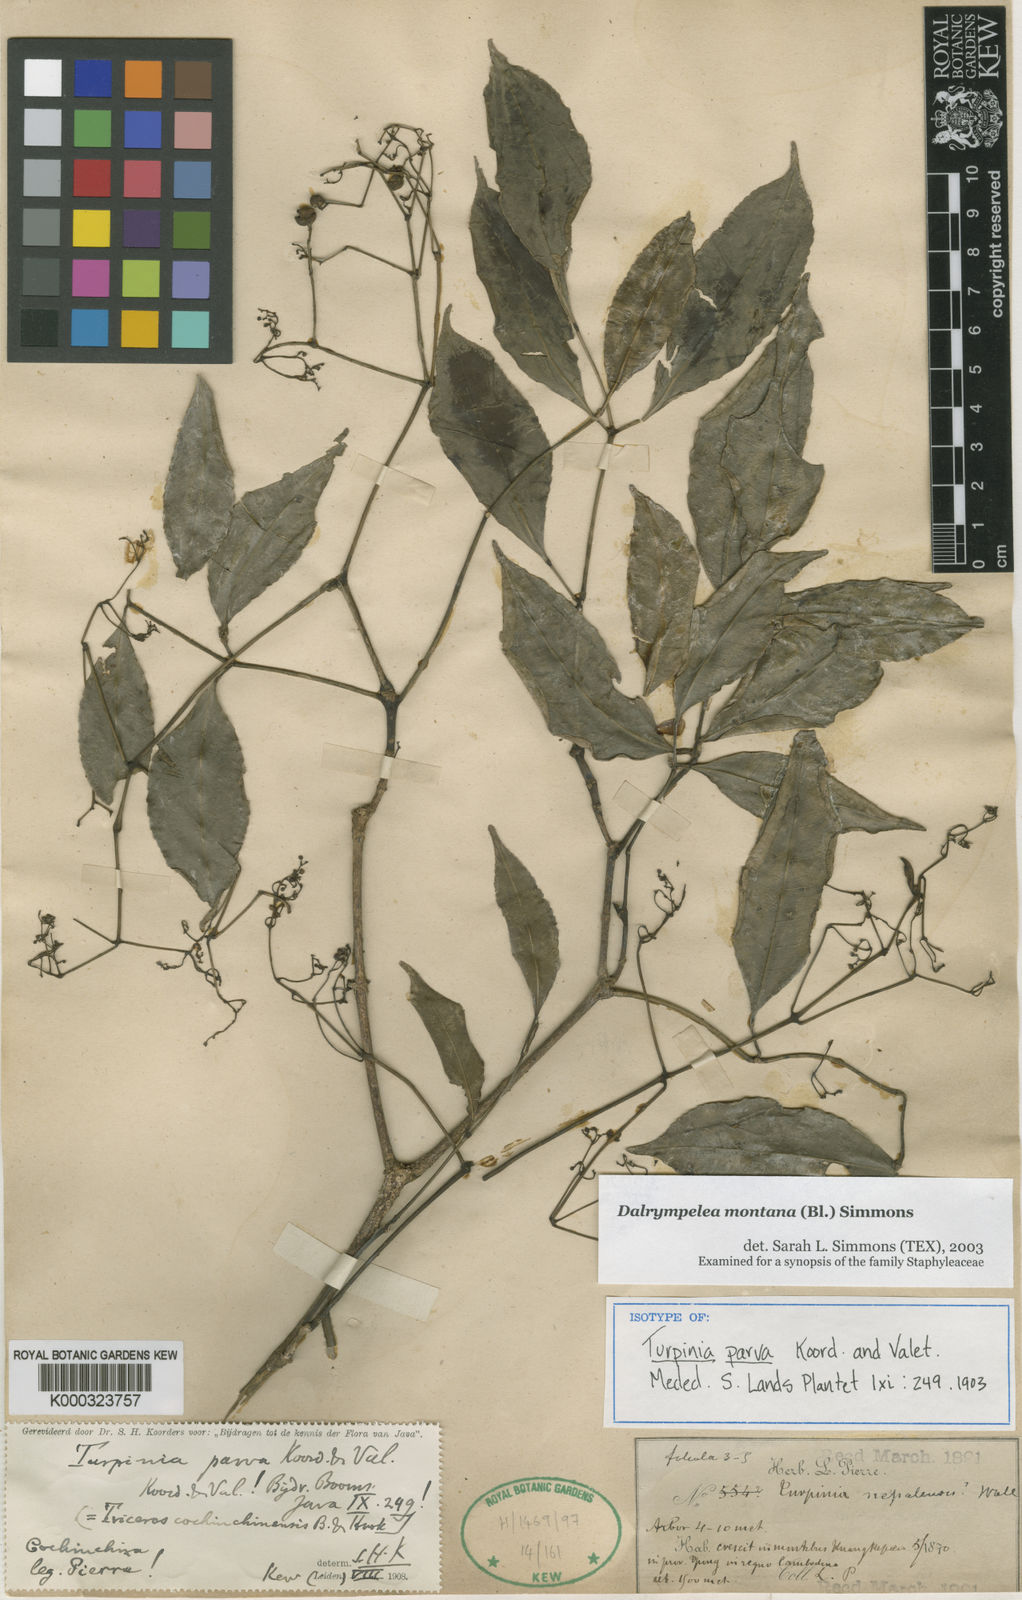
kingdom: Plantae
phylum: Tracheophyta
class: Magnoliopsida
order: Crossosomatales
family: Staphyleaceae
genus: Turpinia
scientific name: Turpinia montana
